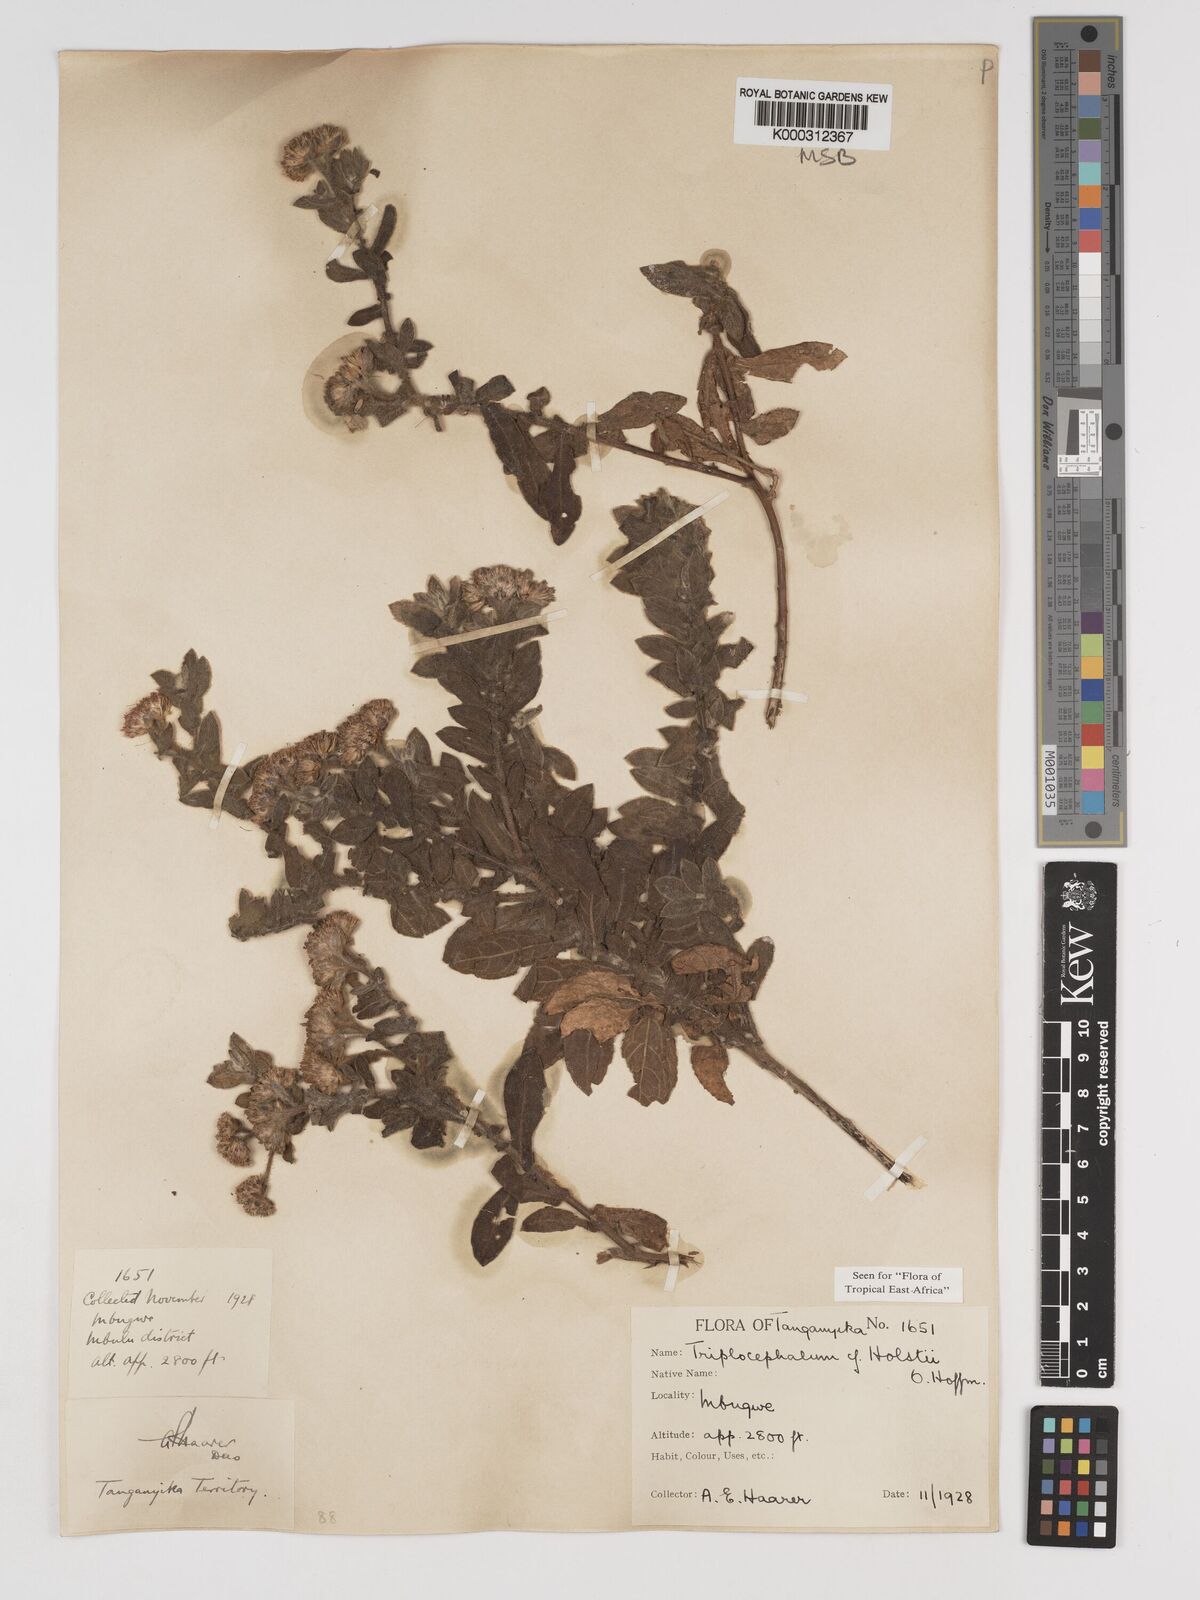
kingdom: Plantae
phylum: Tracheophyta
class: Magnoliopsida
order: Asterales
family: Asteraceae
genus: Triplocephalum
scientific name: Triplocephalum holstii
